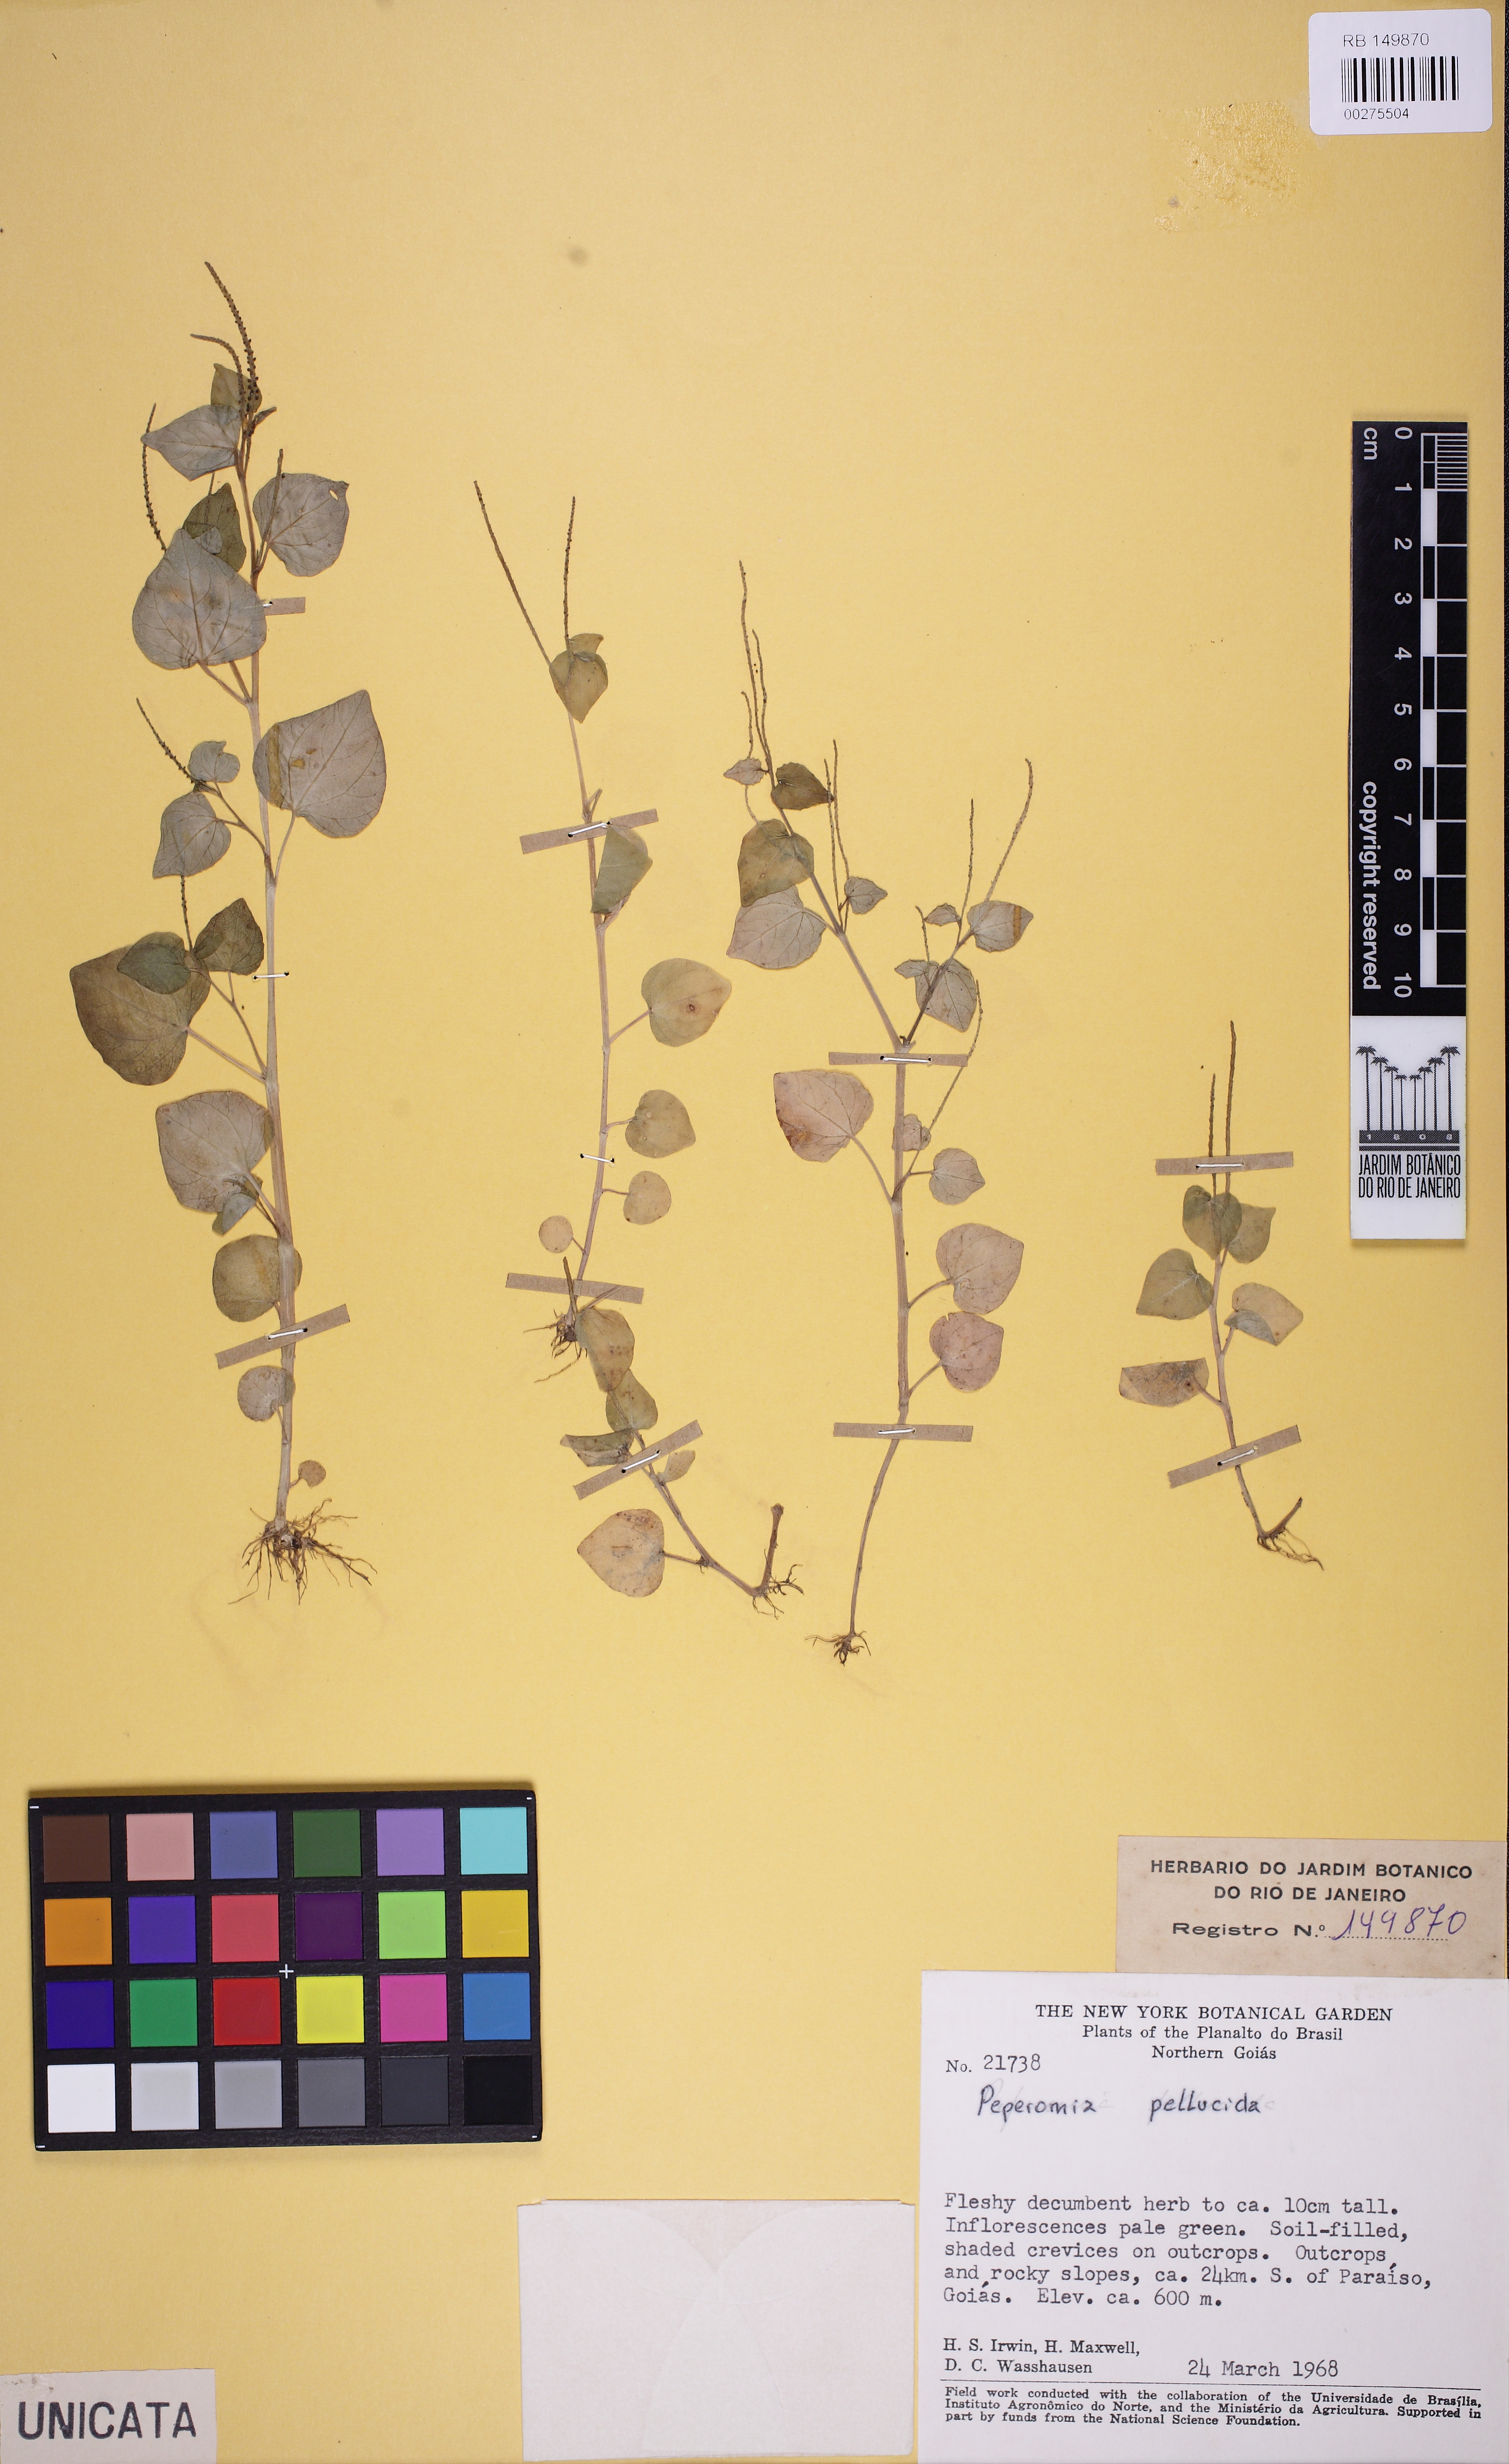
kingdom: Plantae
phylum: Tracheophyta
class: Magnoliopsida
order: Piperales
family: Piperaceae
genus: Peperomia
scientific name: Peperomia pellucida
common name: Man to man
